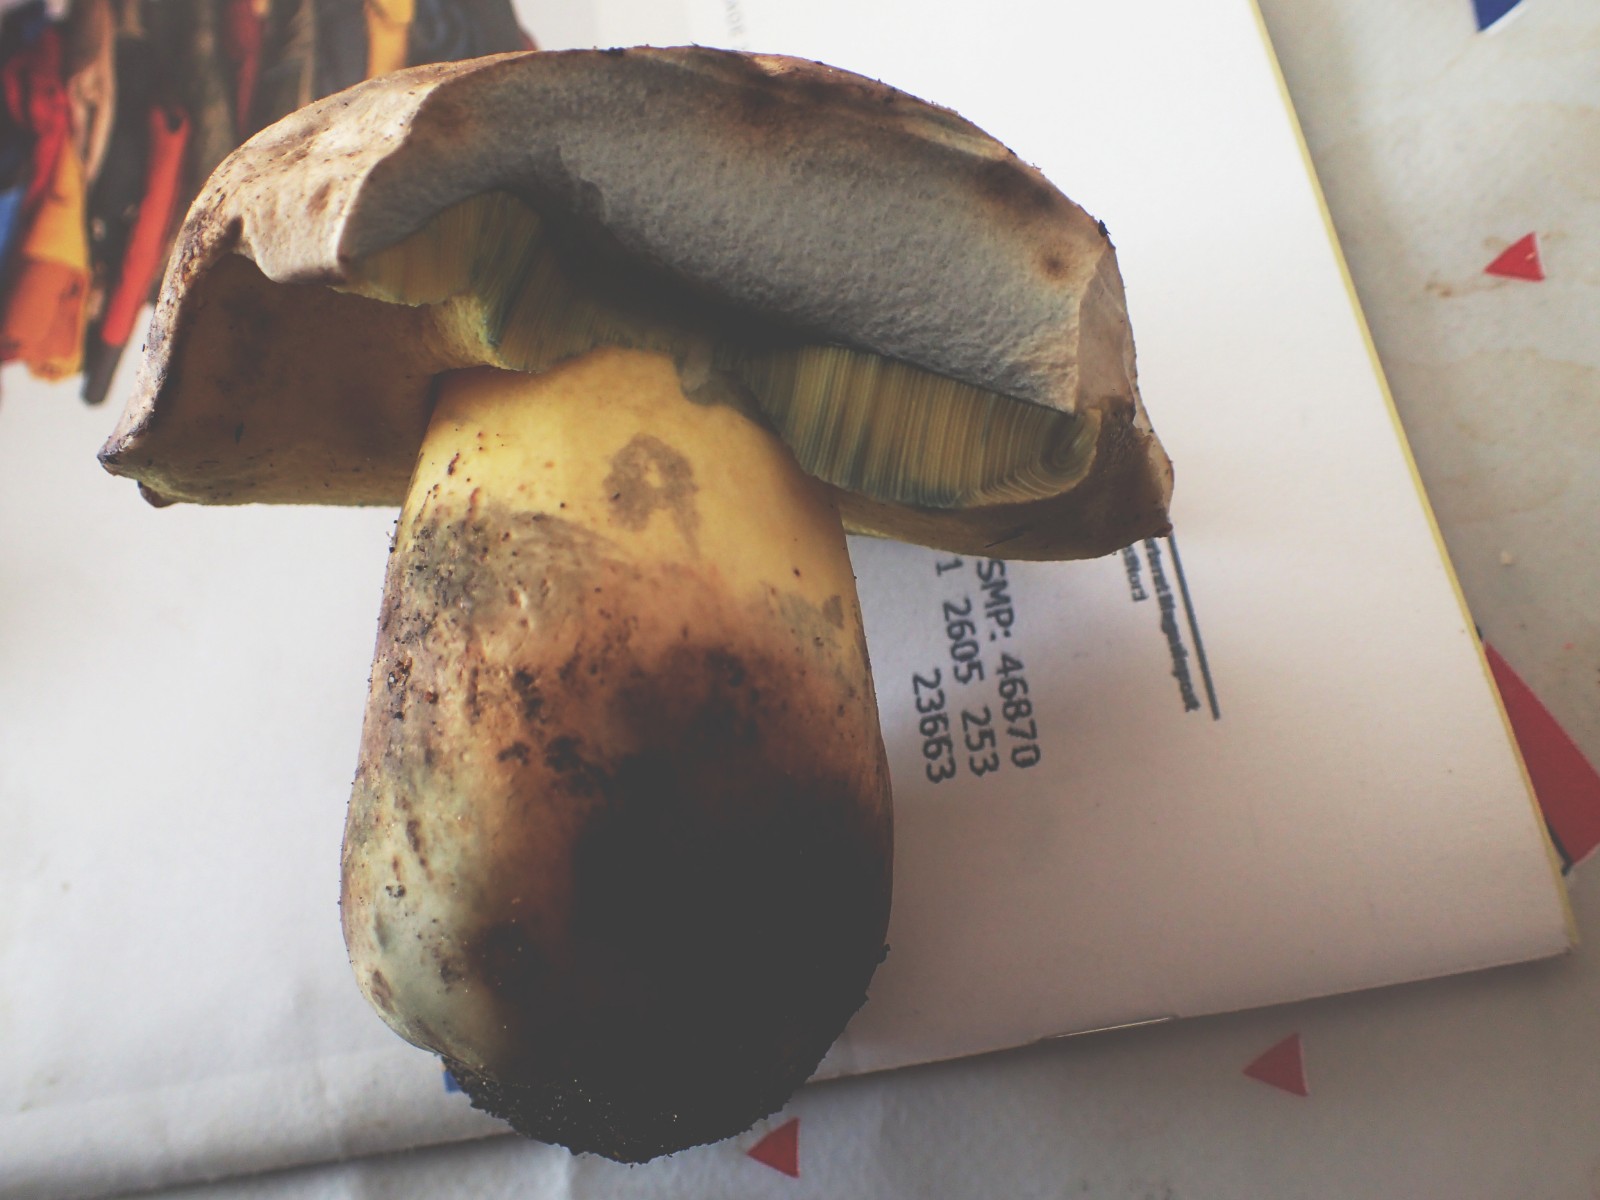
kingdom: Fungi
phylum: Basidiomycota
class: Agaricomycetes
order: Boletales
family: Boletaceae
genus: Caloboletus
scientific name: Caloboletus radicans
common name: rod-rørhat
